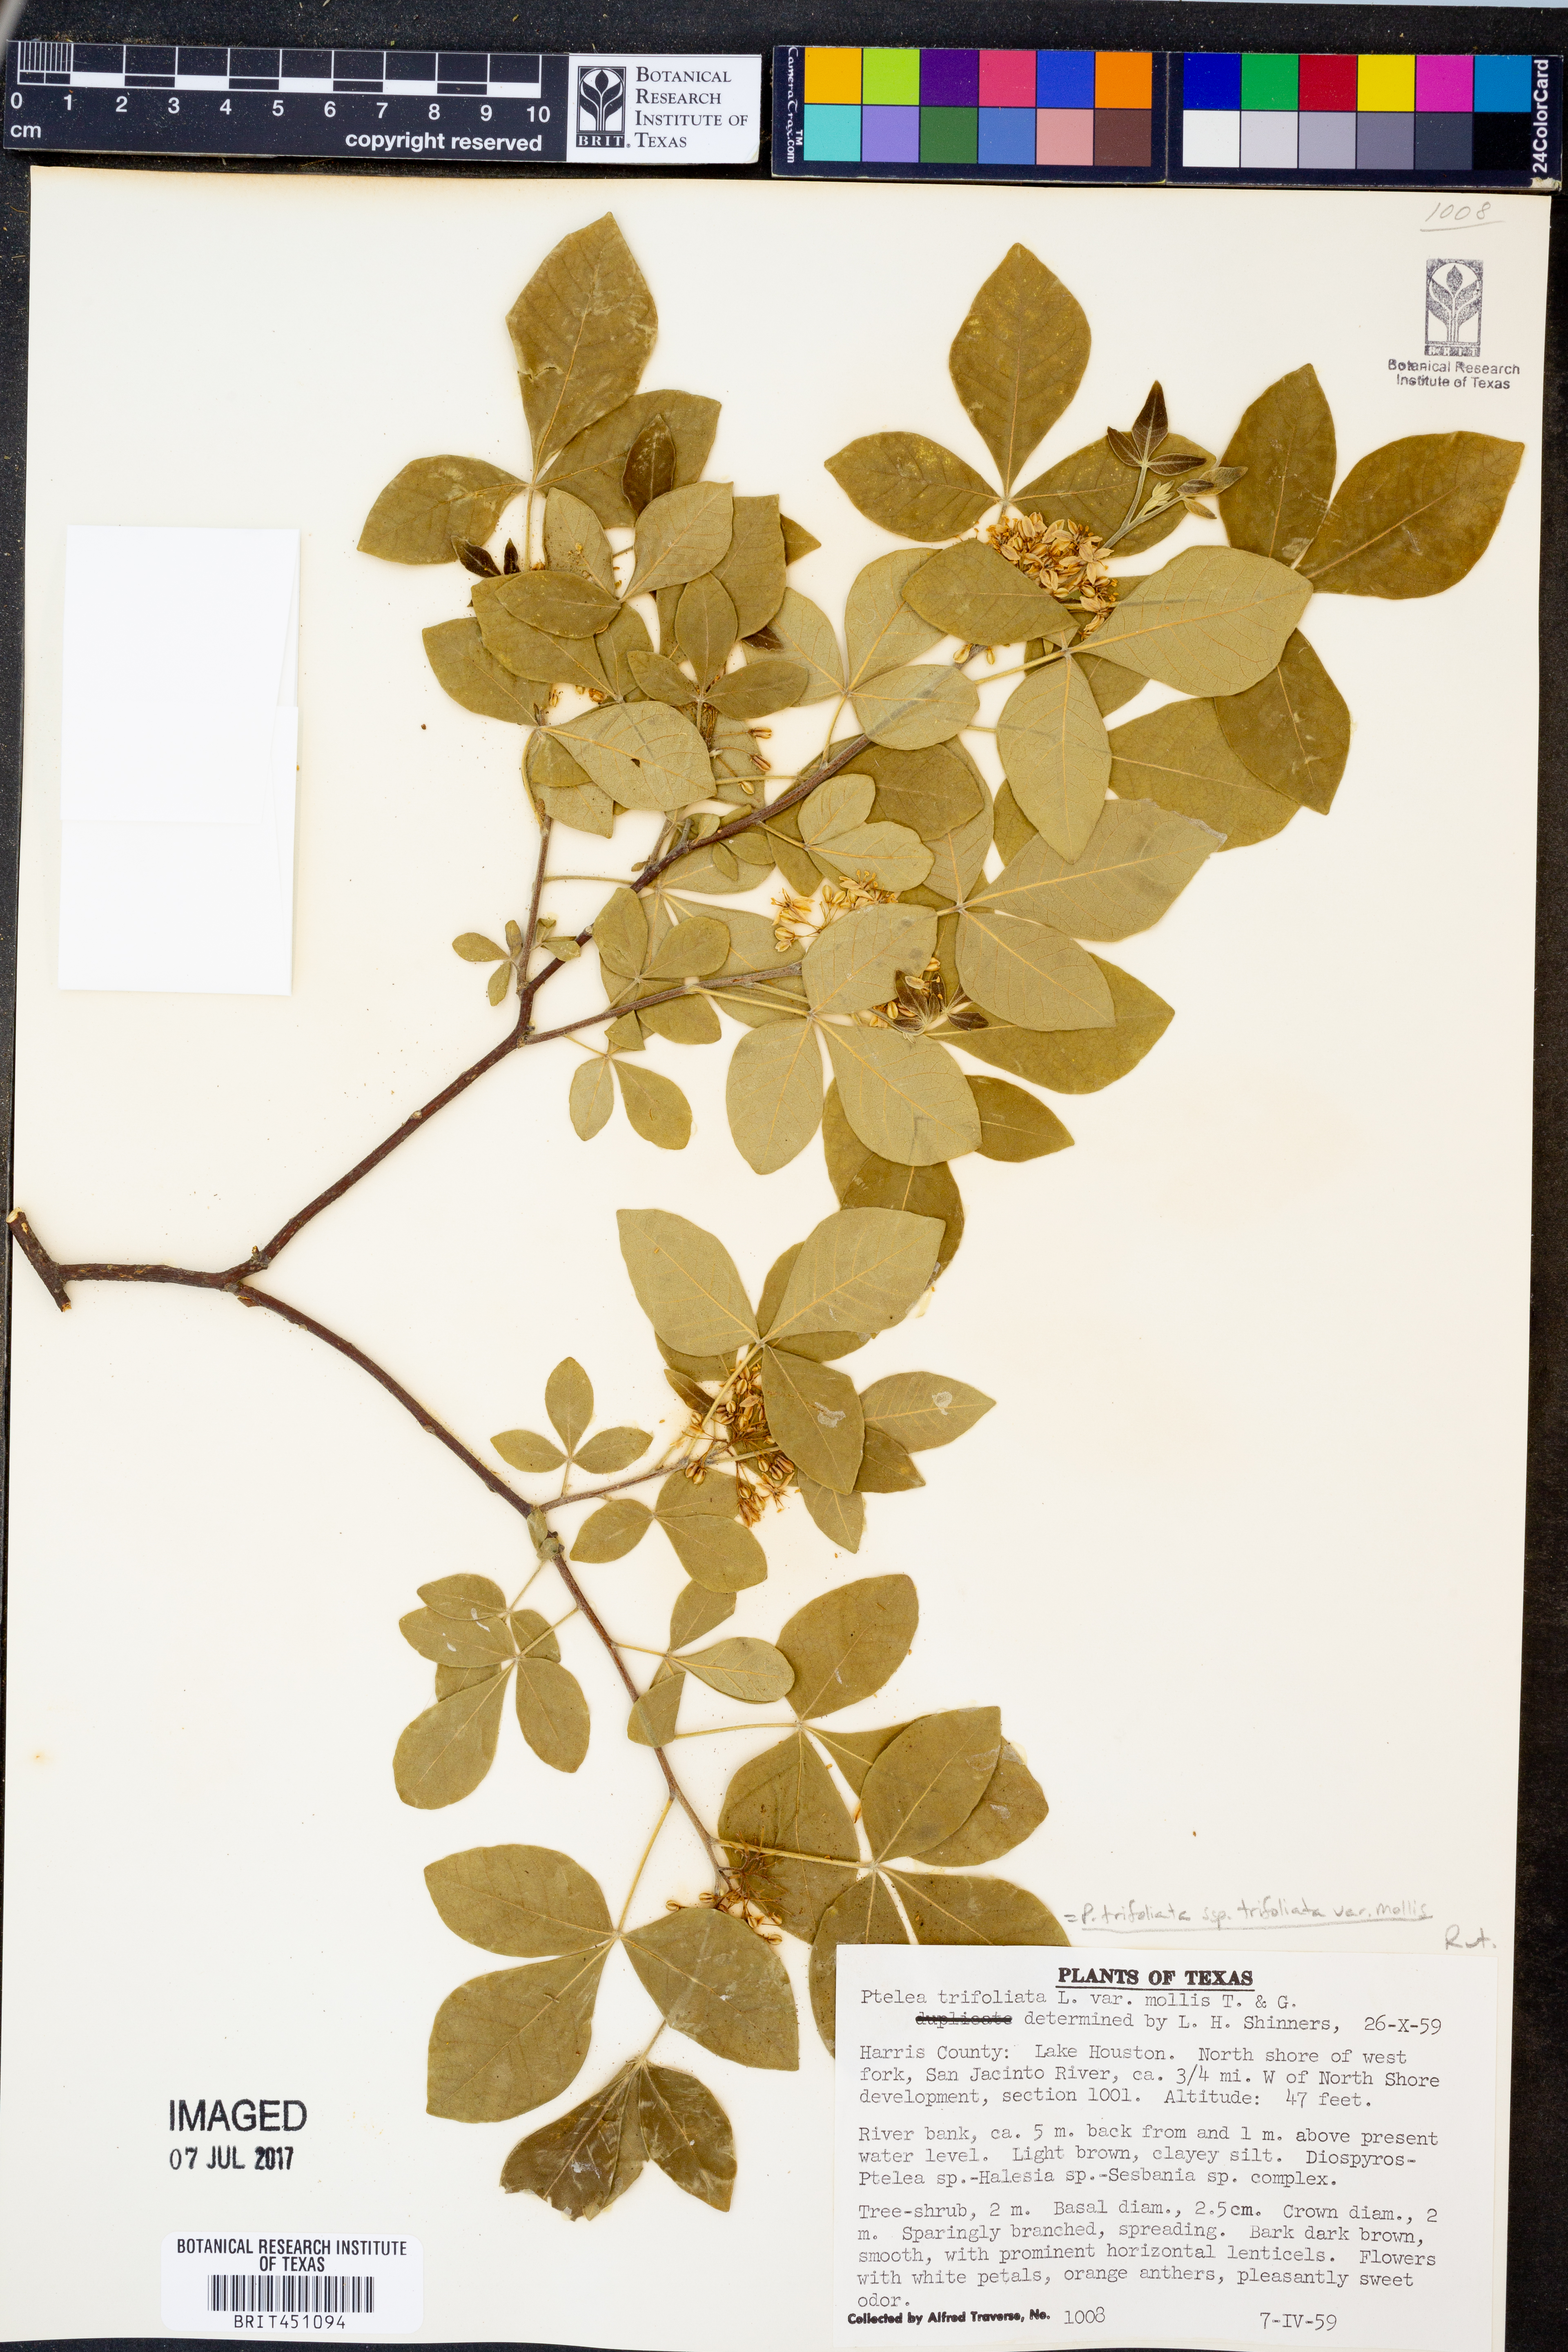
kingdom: Plantae
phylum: Tracheophyta
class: Magnoliopsida
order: Sapindales
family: Rutaceae
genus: Ptelea
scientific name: Ptelea trifoliata
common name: Common hop-tree
